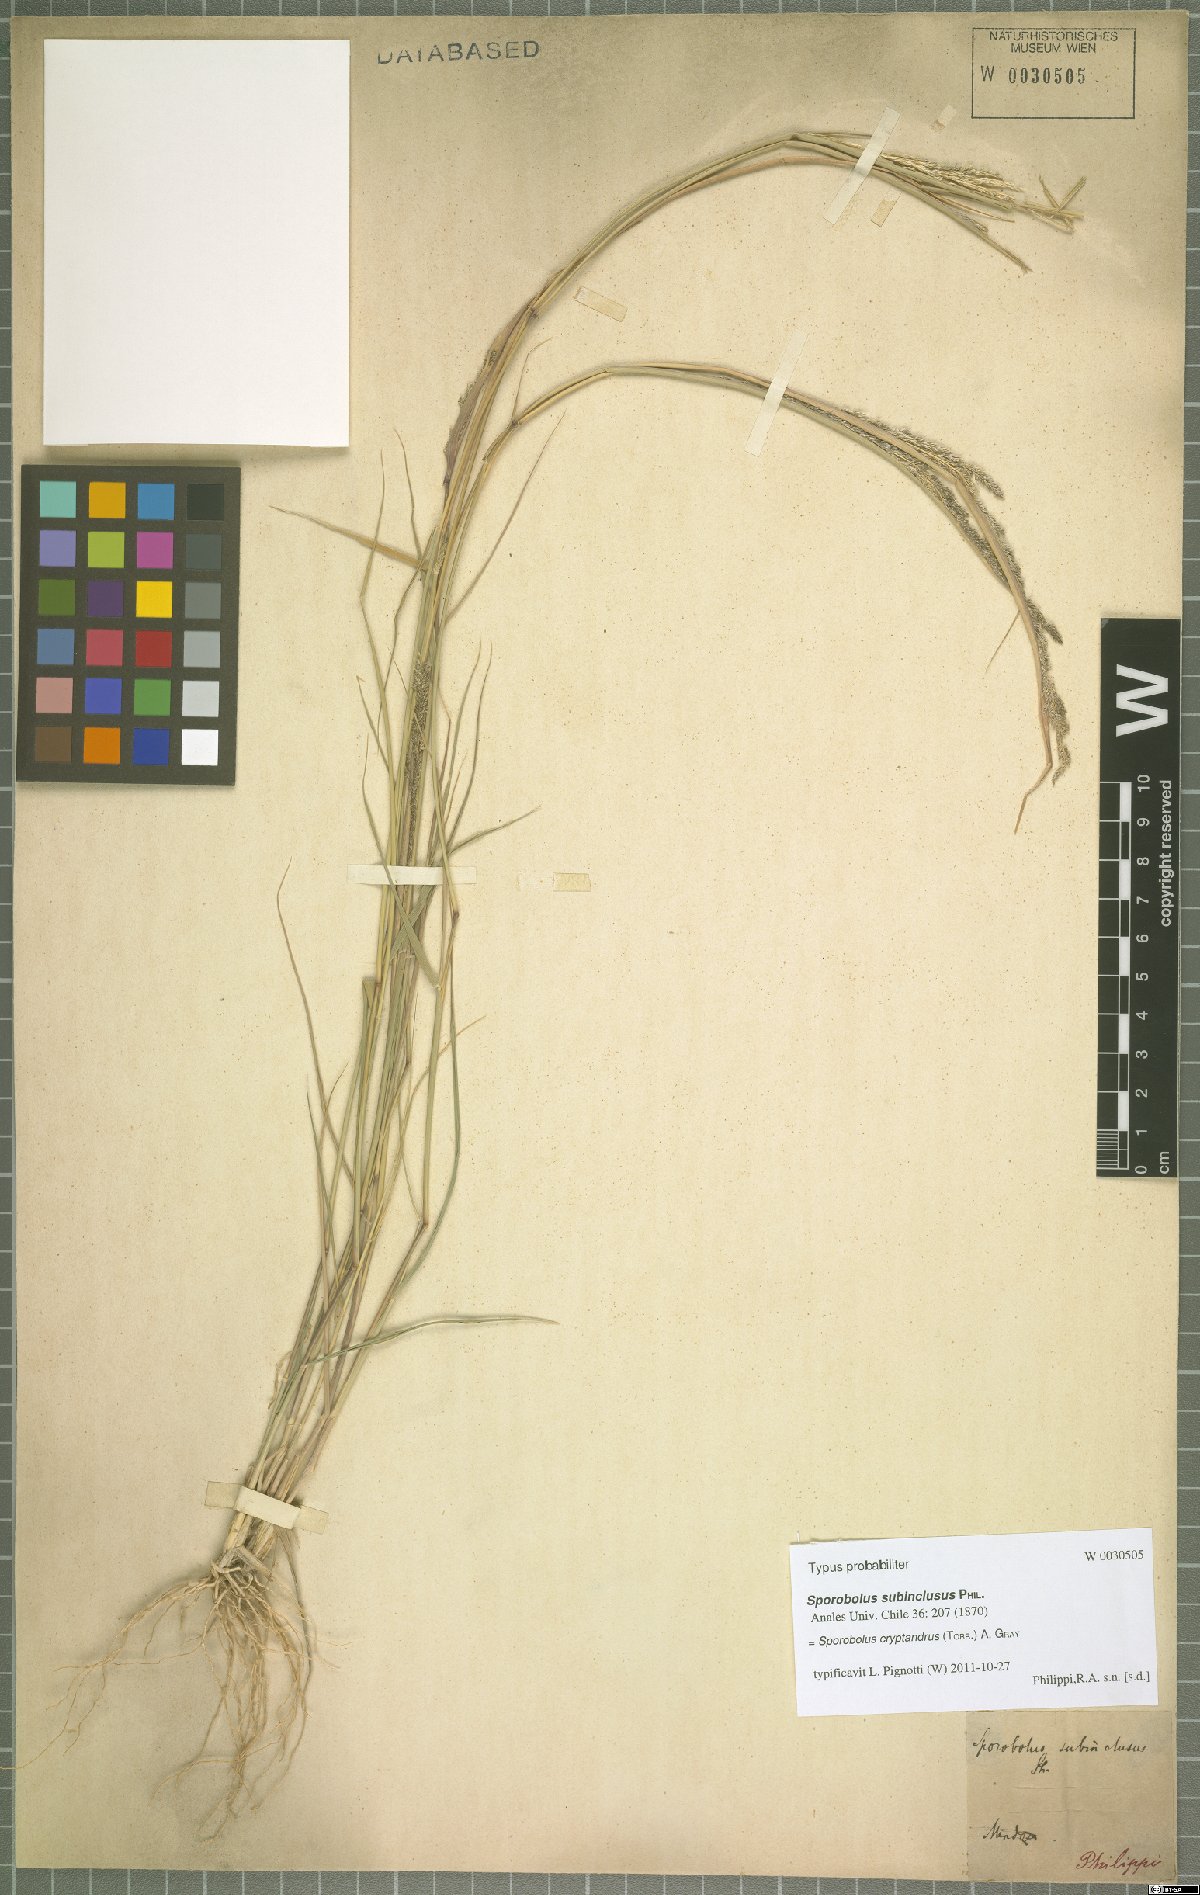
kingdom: Plantae
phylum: Tracheophyta
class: Liliopsida
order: Poales
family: Poaceae
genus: Sporobolus
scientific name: Sporobolus cryptandrus
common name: Sand dropseed
